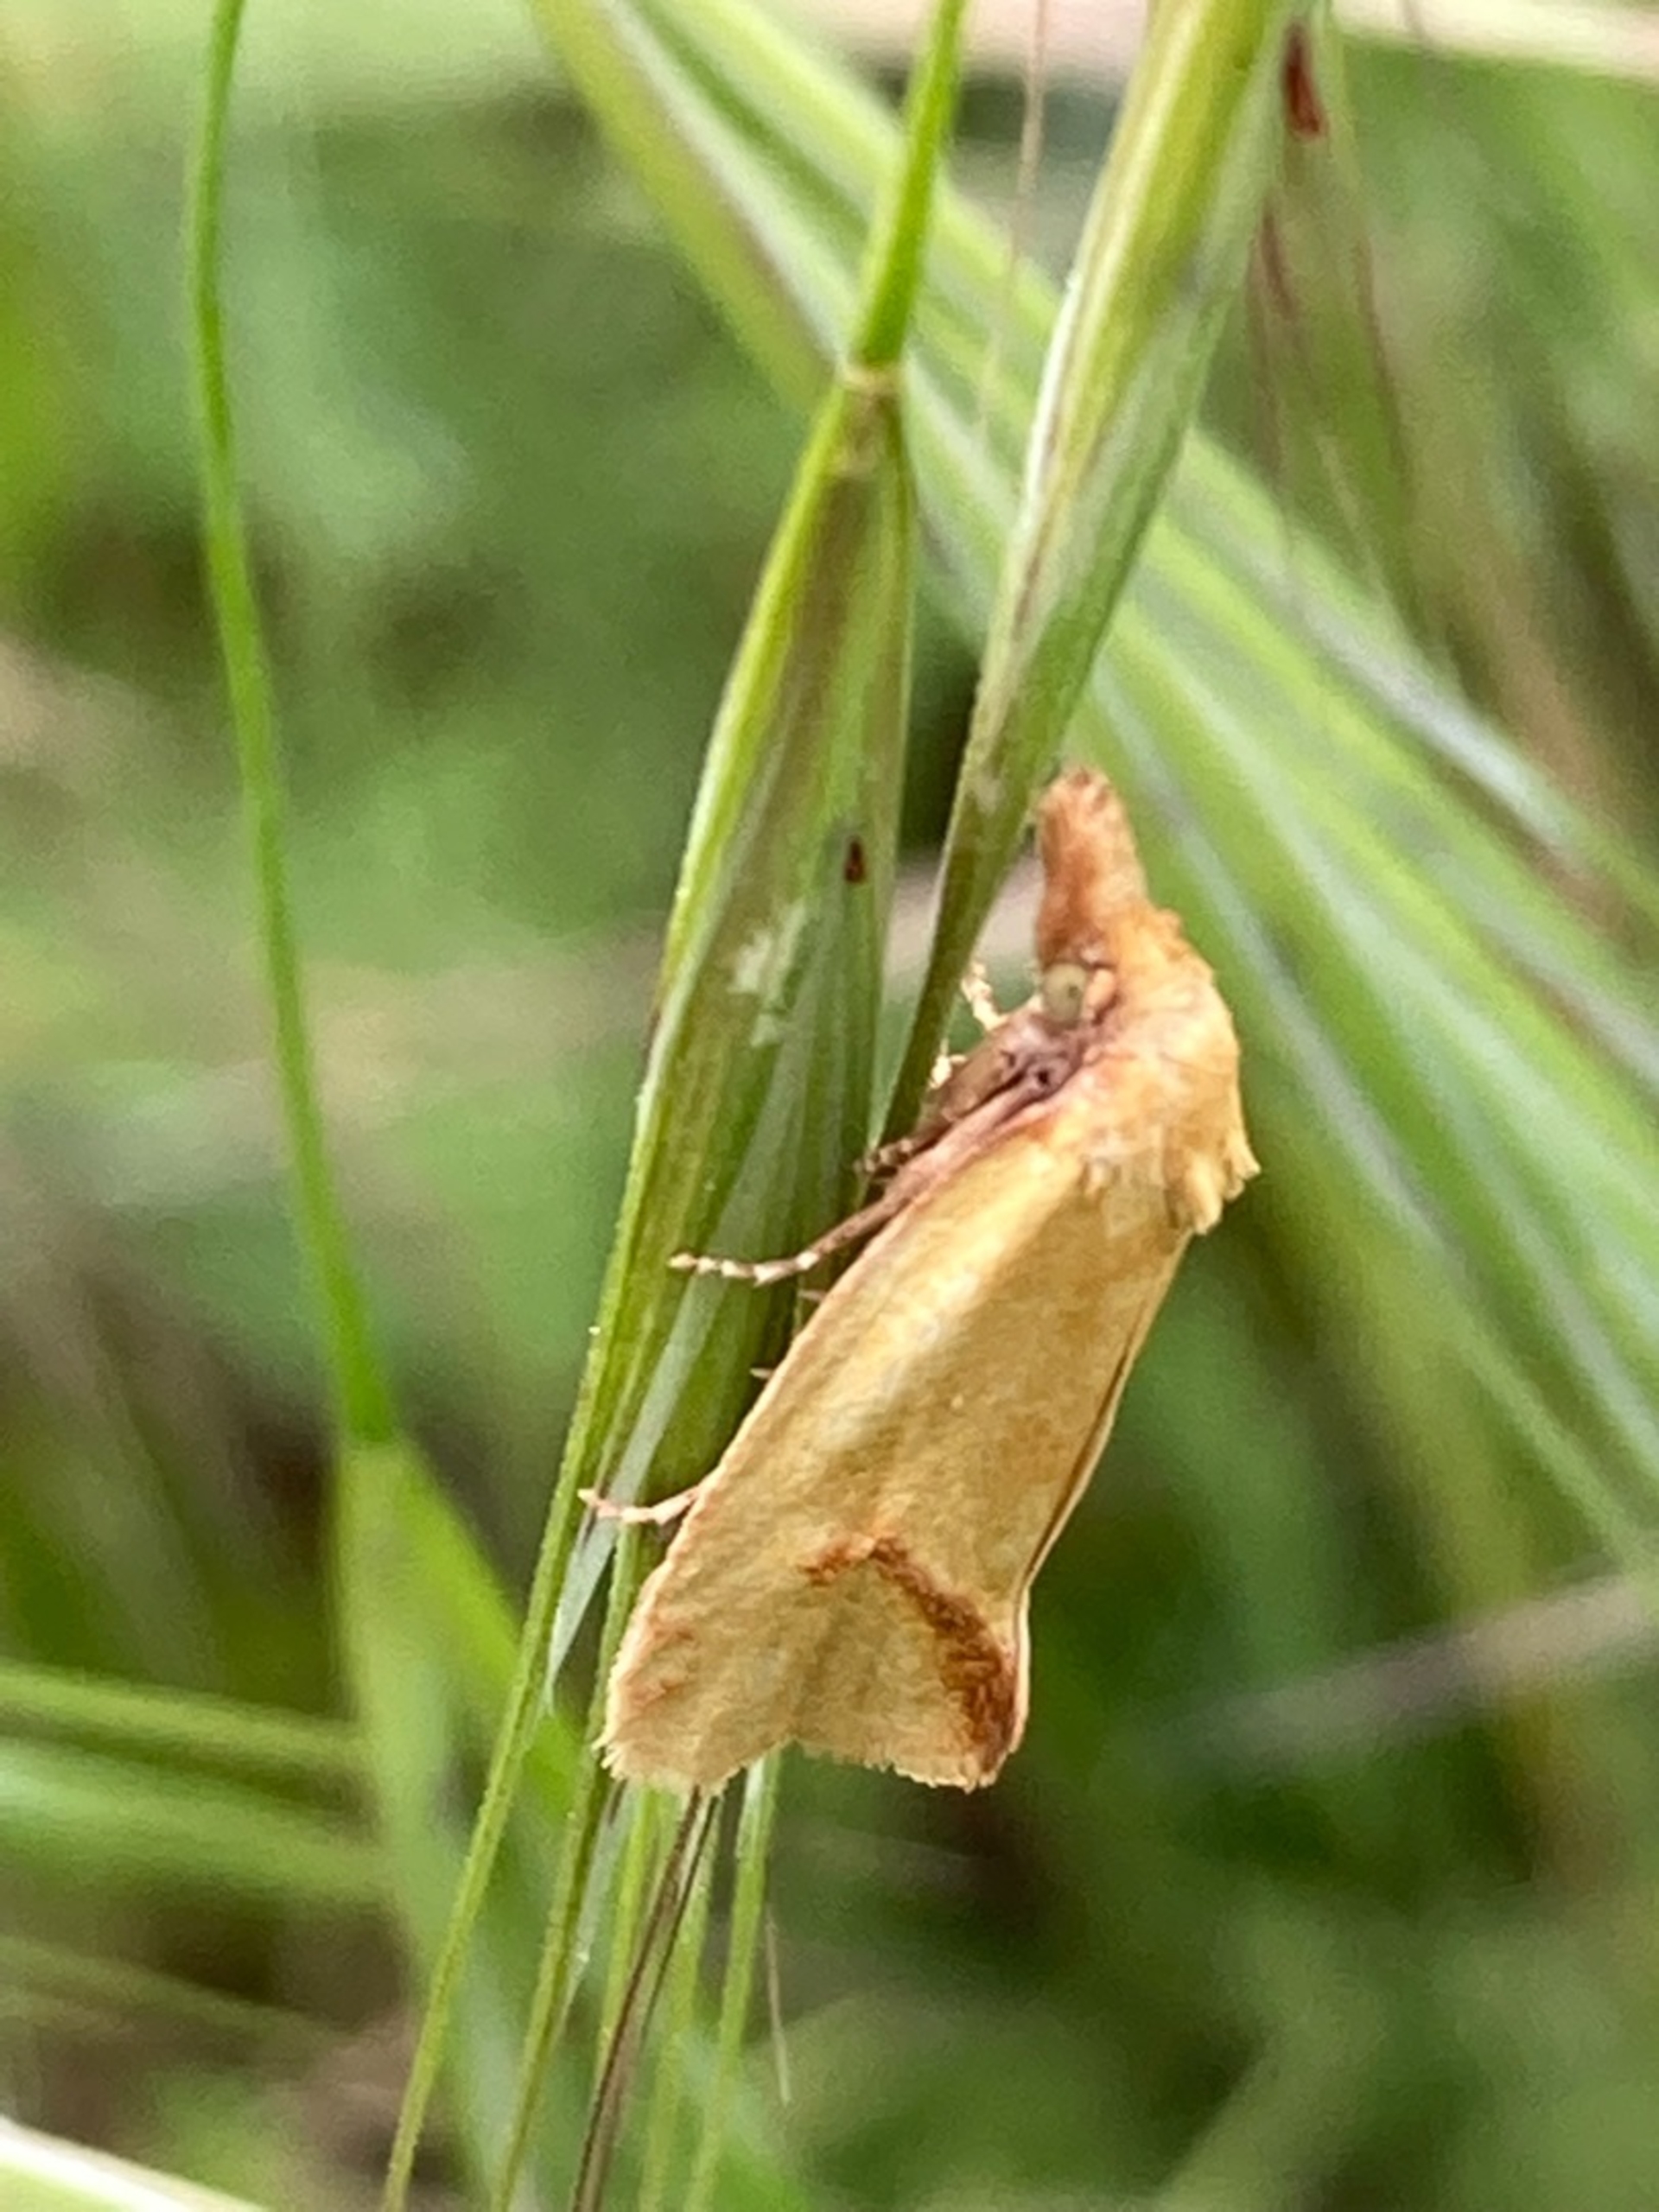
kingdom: Animalia
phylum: Arthropoda
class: Insecta
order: Lepidoptera
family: Tortricidae
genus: Agapeta
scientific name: Agapeta hamana
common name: Tidselgulvikler
